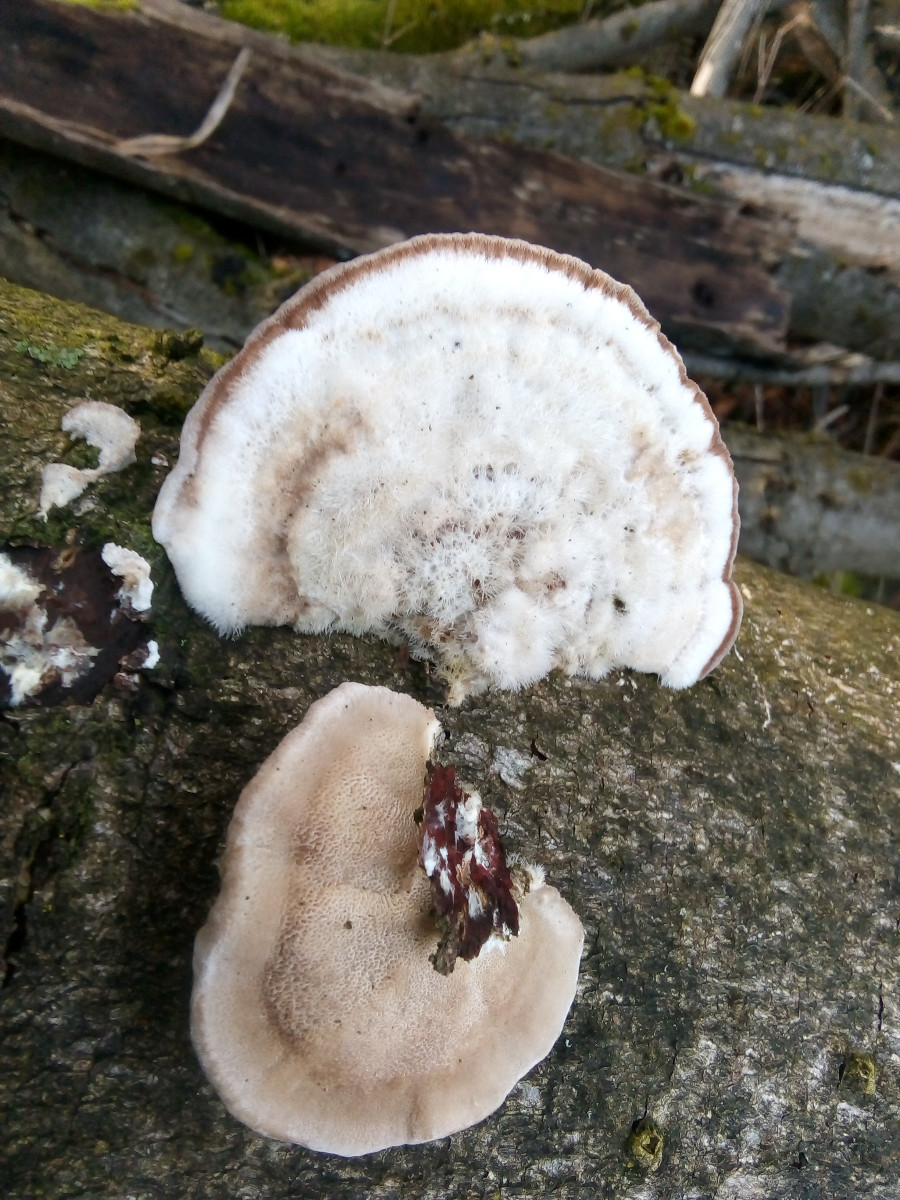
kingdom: Fungi
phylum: Basidiomycota
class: Agaricomycetes
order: Polyporales
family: Polyporaceae
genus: Trametes
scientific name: Trametes hirsuta
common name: håret læderporesvamp
